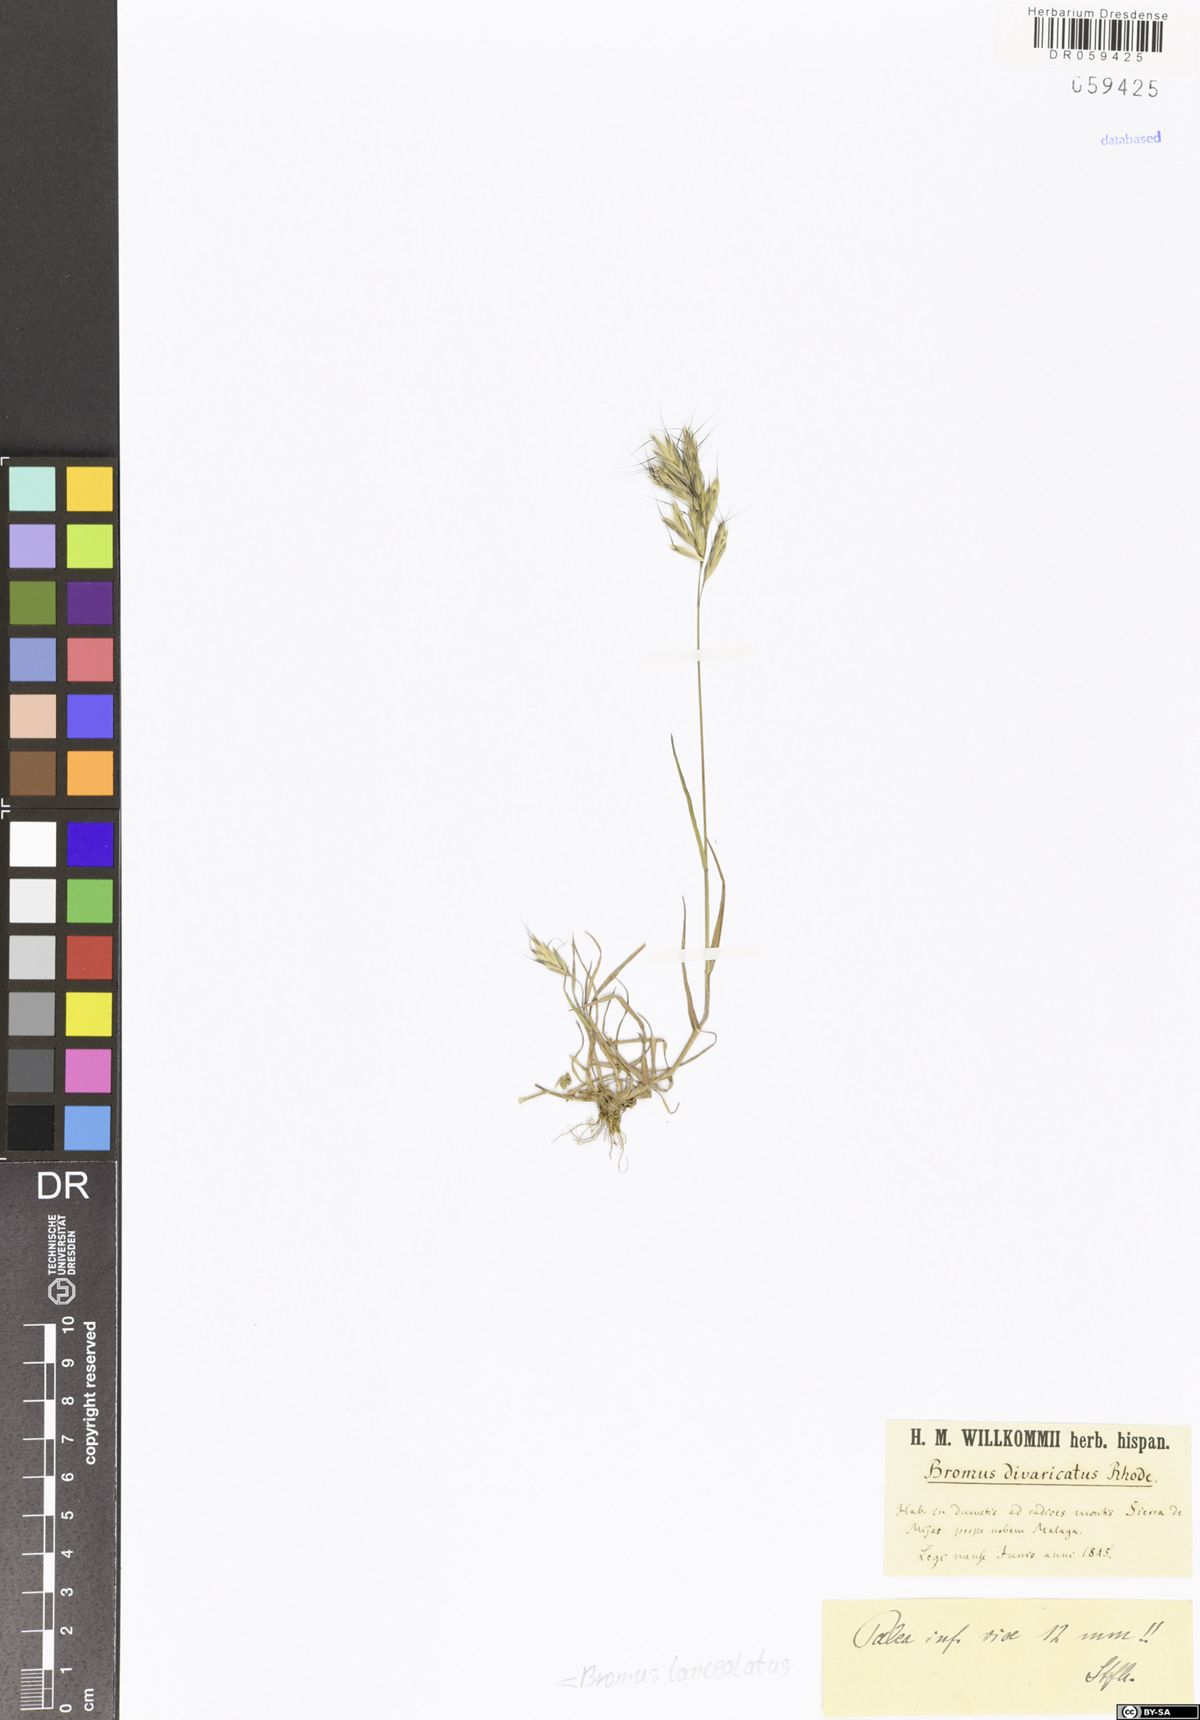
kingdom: Plantae
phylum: Tracheophyta
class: Liliopsida
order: Poales
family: Poaceae
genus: Bromus
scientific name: Bromus lanceolatus
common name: Mediterranean brome
